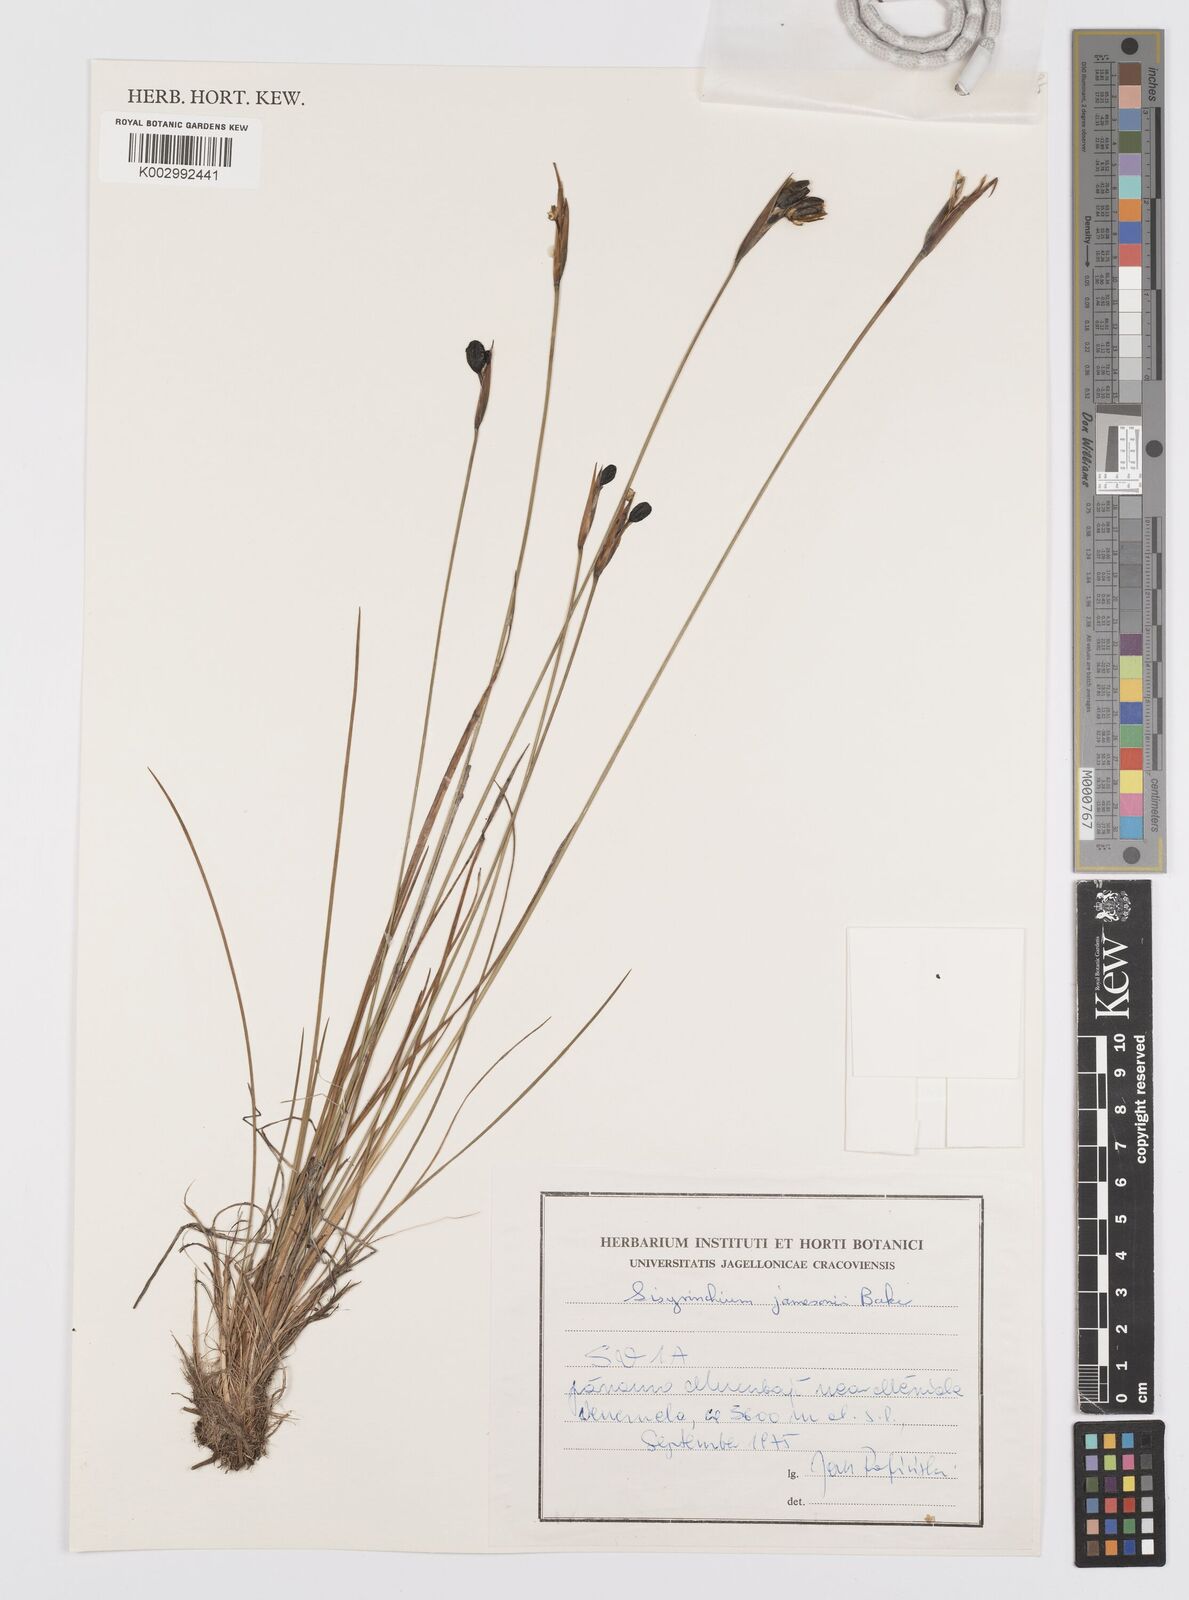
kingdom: Plantae
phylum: Tracheophyta
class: Liliopsida
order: Asparagales
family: Iridaceae
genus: Sisyrinchium
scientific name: Sisyrinchium jamesonii
